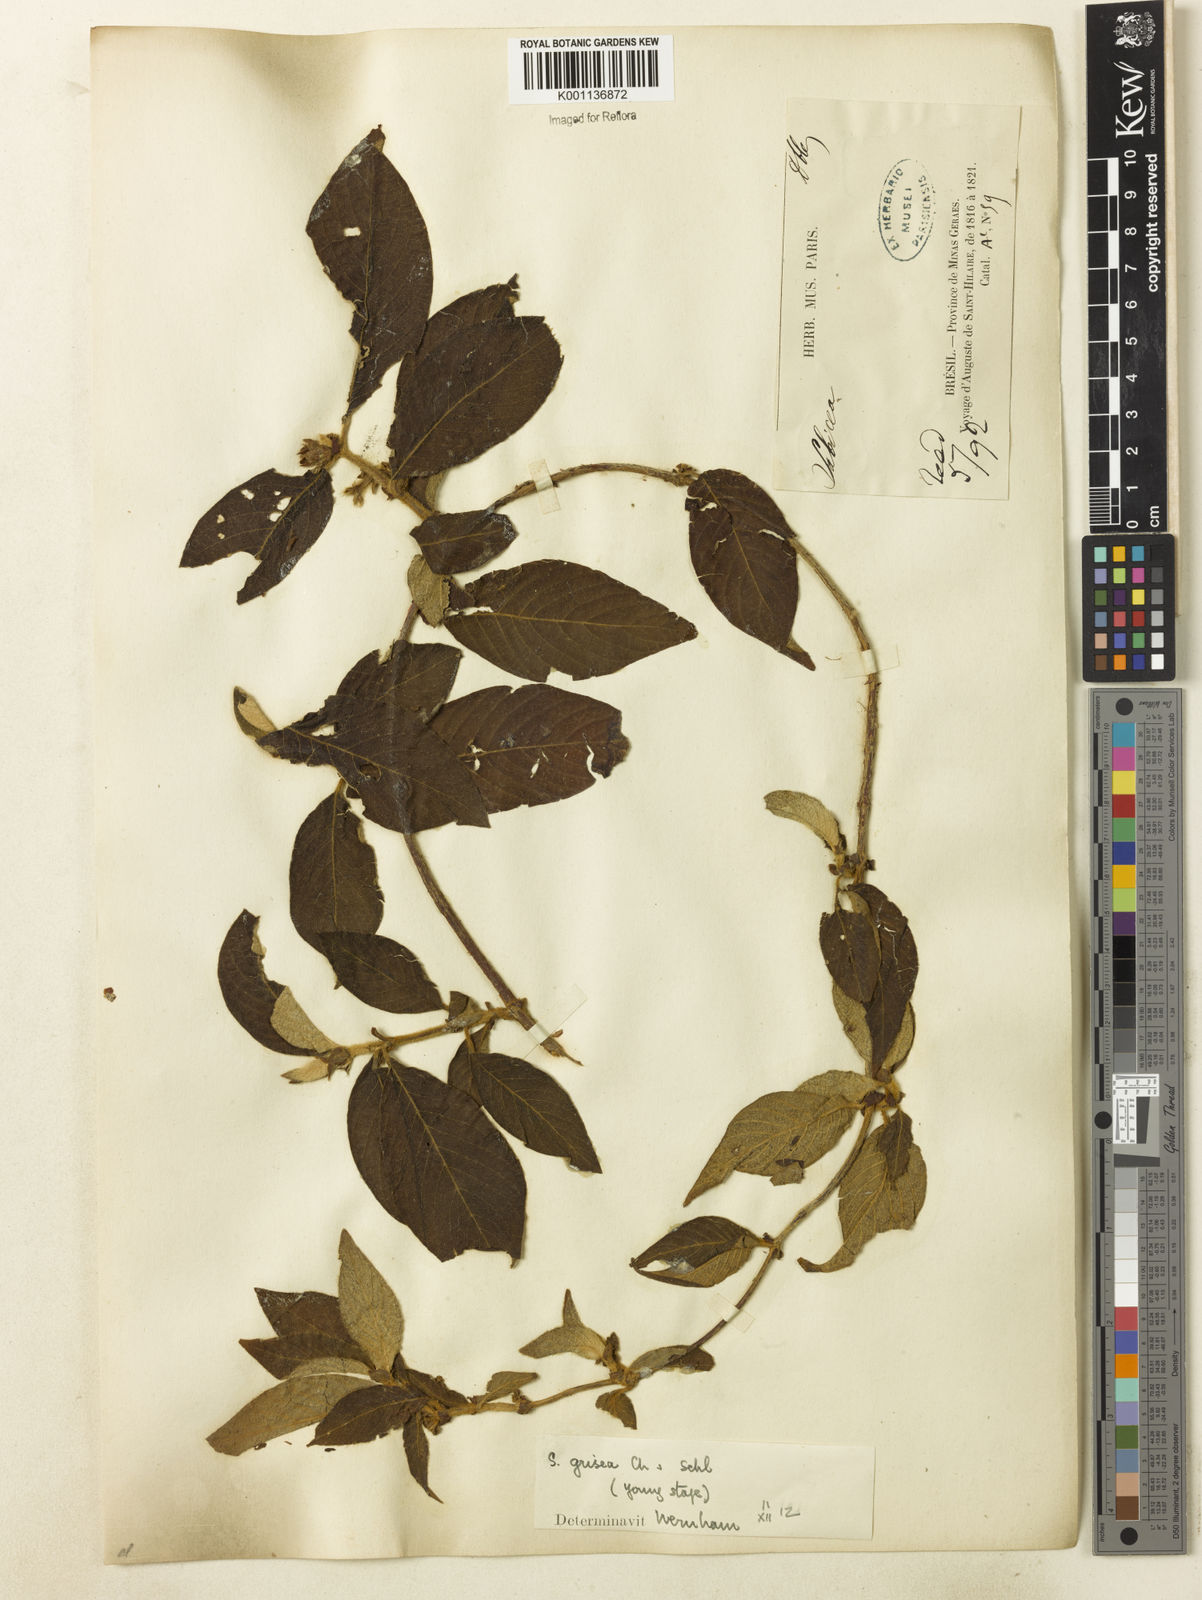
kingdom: Plantae
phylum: Tracheophyta
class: Magnoliopsida
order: Gentianales
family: Rubiaceae
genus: Sabicea
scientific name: Sabicea grisea
